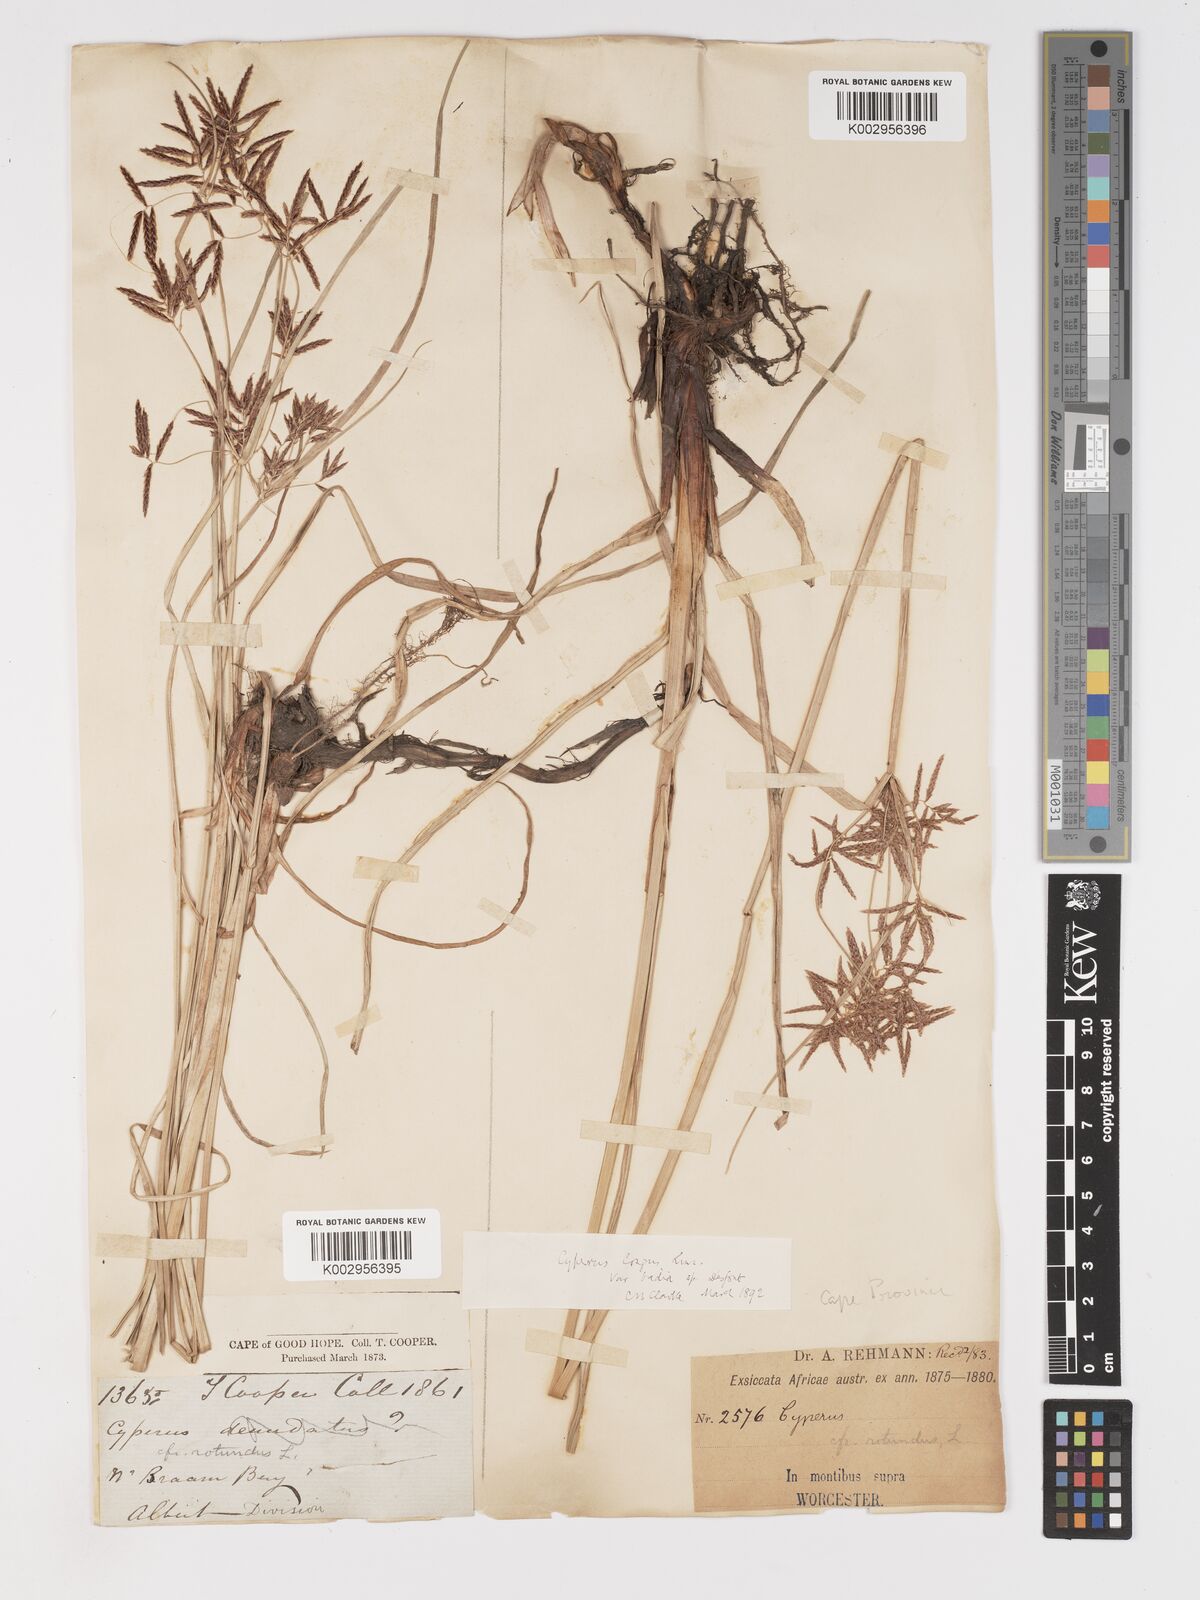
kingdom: Plantae
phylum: Tracheophyta
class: Liliopsida
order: Poales
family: Cyperaceae
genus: Cyperus
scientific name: Cyperus longus
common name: Galingale
